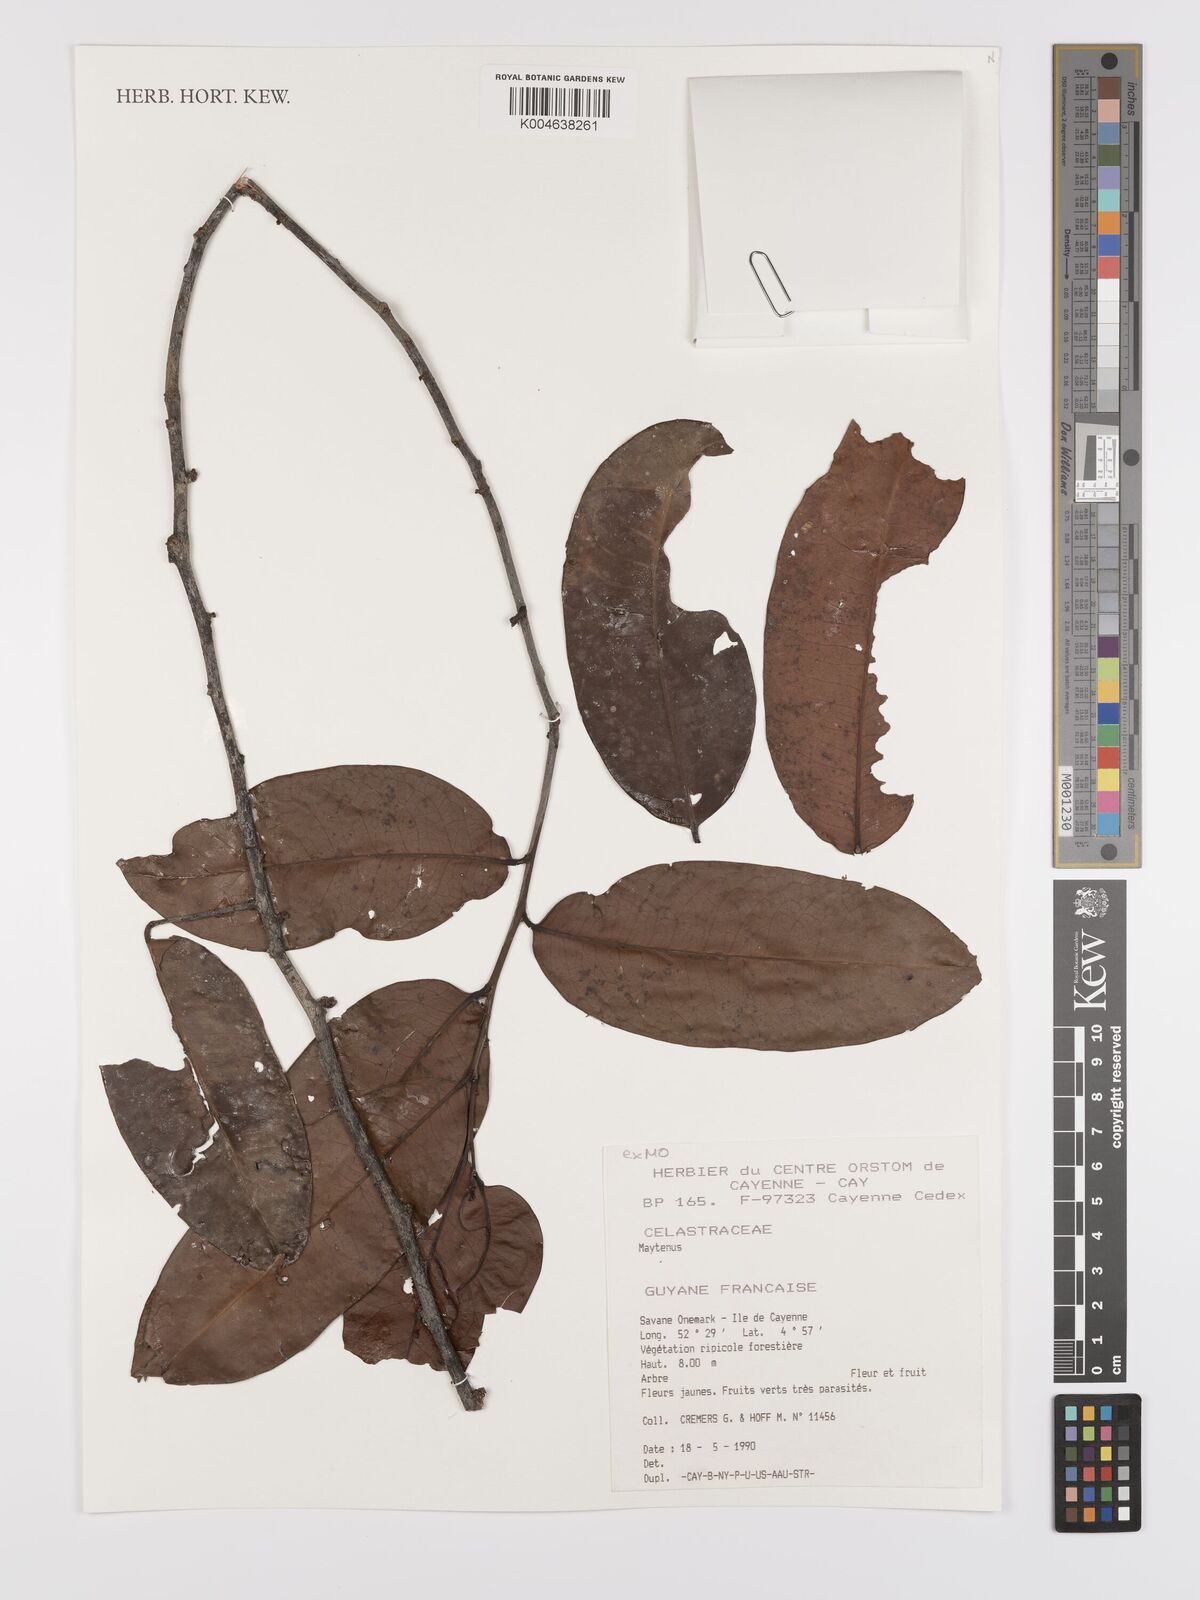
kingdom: Plantae
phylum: Tracheophyta
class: Magnoliopsida
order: Celastrales
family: Celastraceae
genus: Maytenus
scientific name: Maytenus
